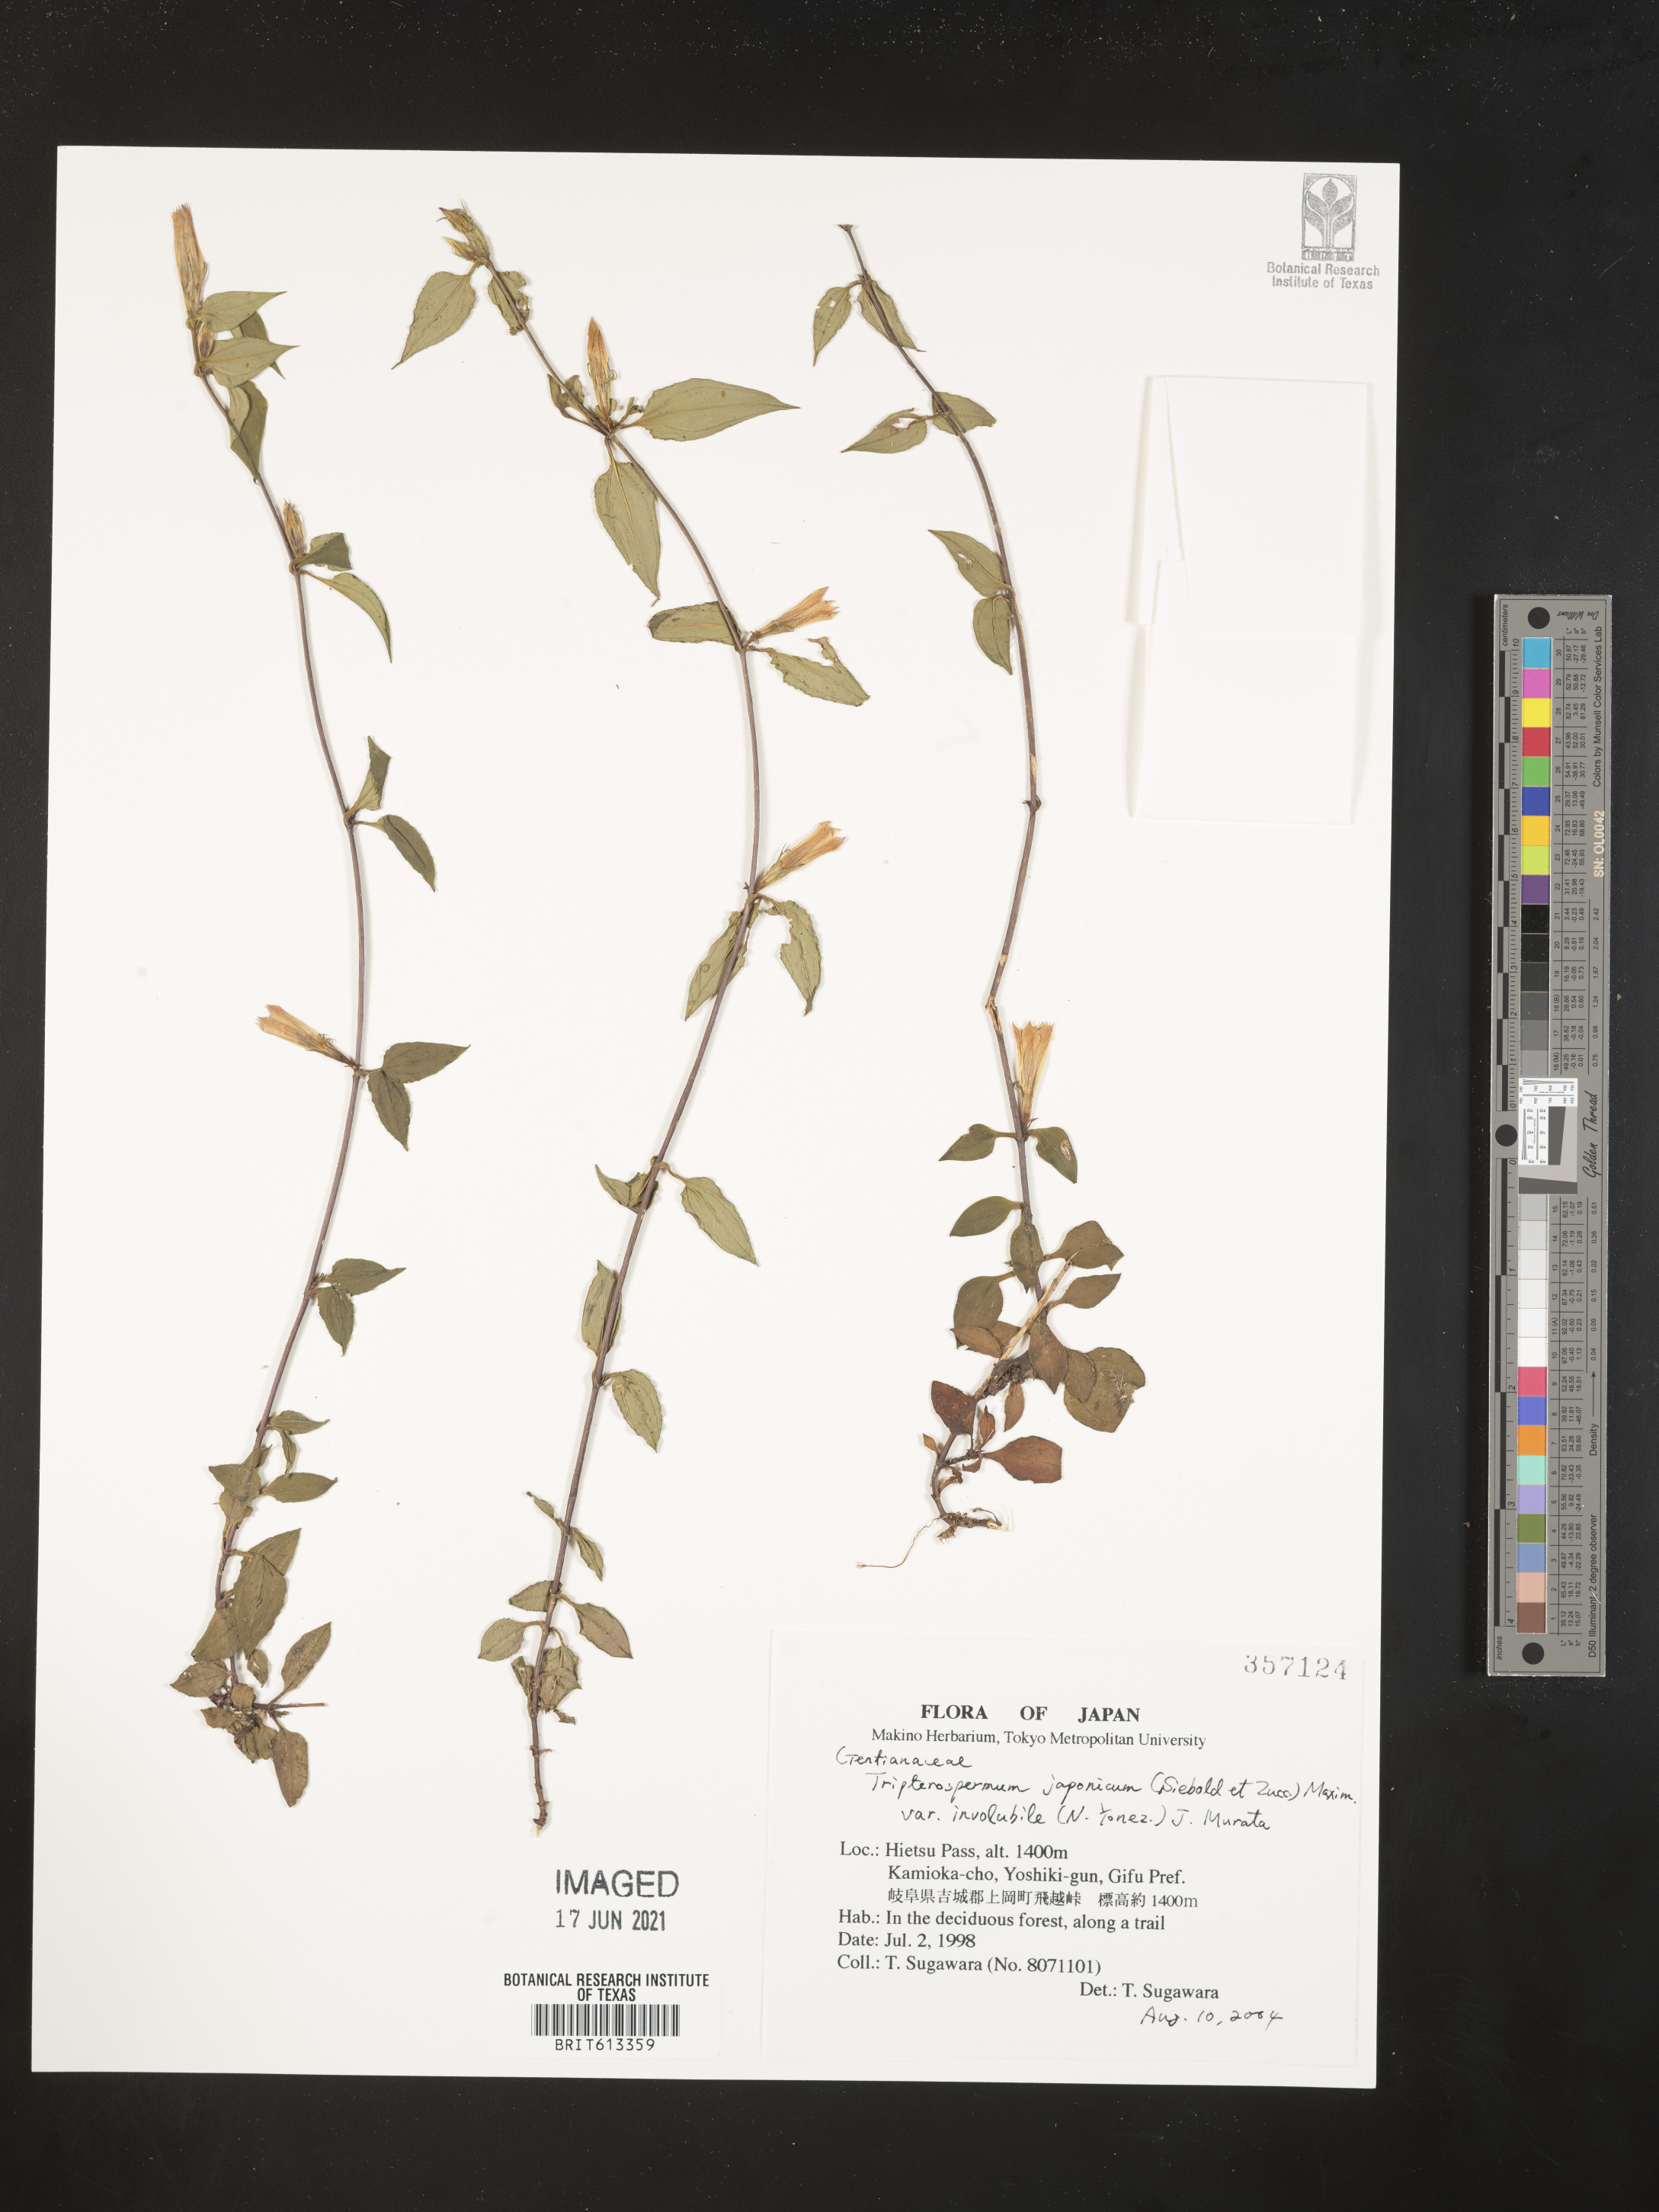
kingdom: Plantae
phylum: Tracheophyta
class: Magnoliopsida
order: Gentianales
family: Gentianaceae
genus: Tripterospermum
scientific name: Tripterospermum trinervium
